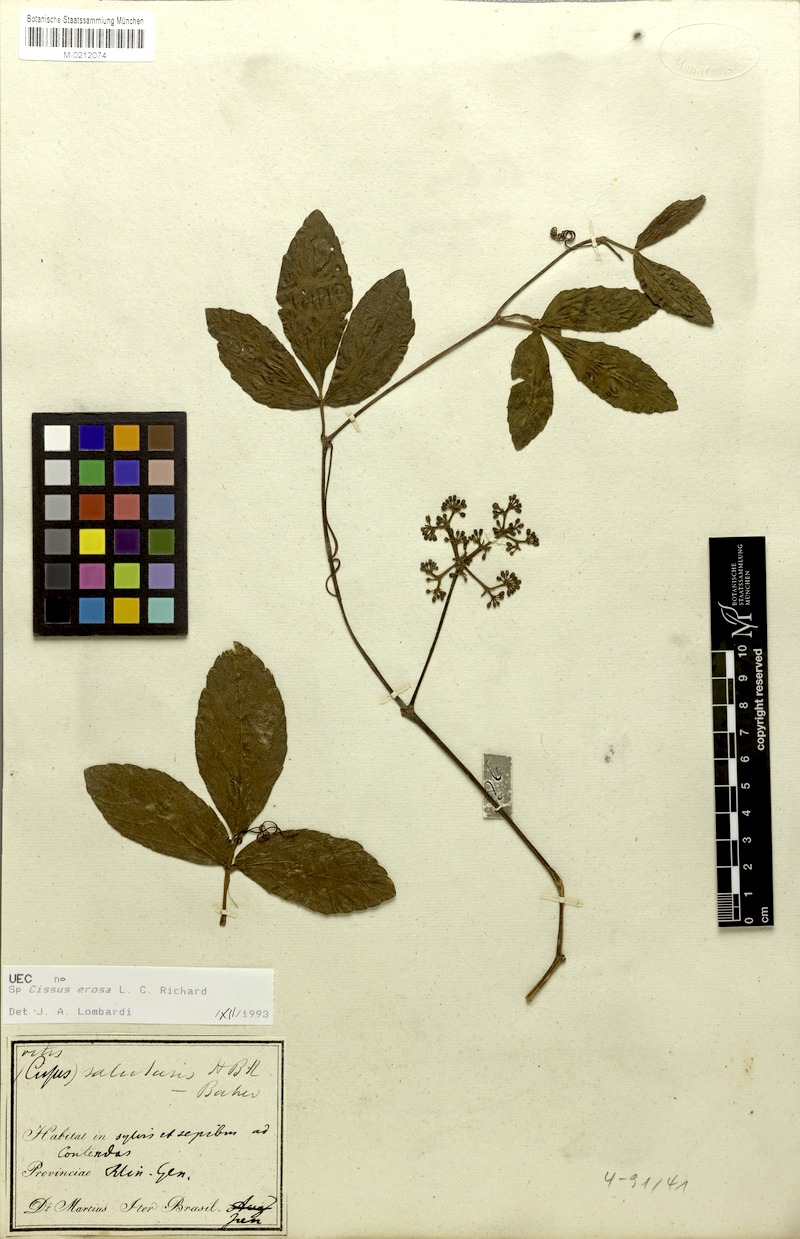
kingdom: Plantae
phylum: Tracheophyta
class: Magnoliopsida
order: Vitales
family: Vitaceae
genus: Cissus
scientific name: Cissus erosa
